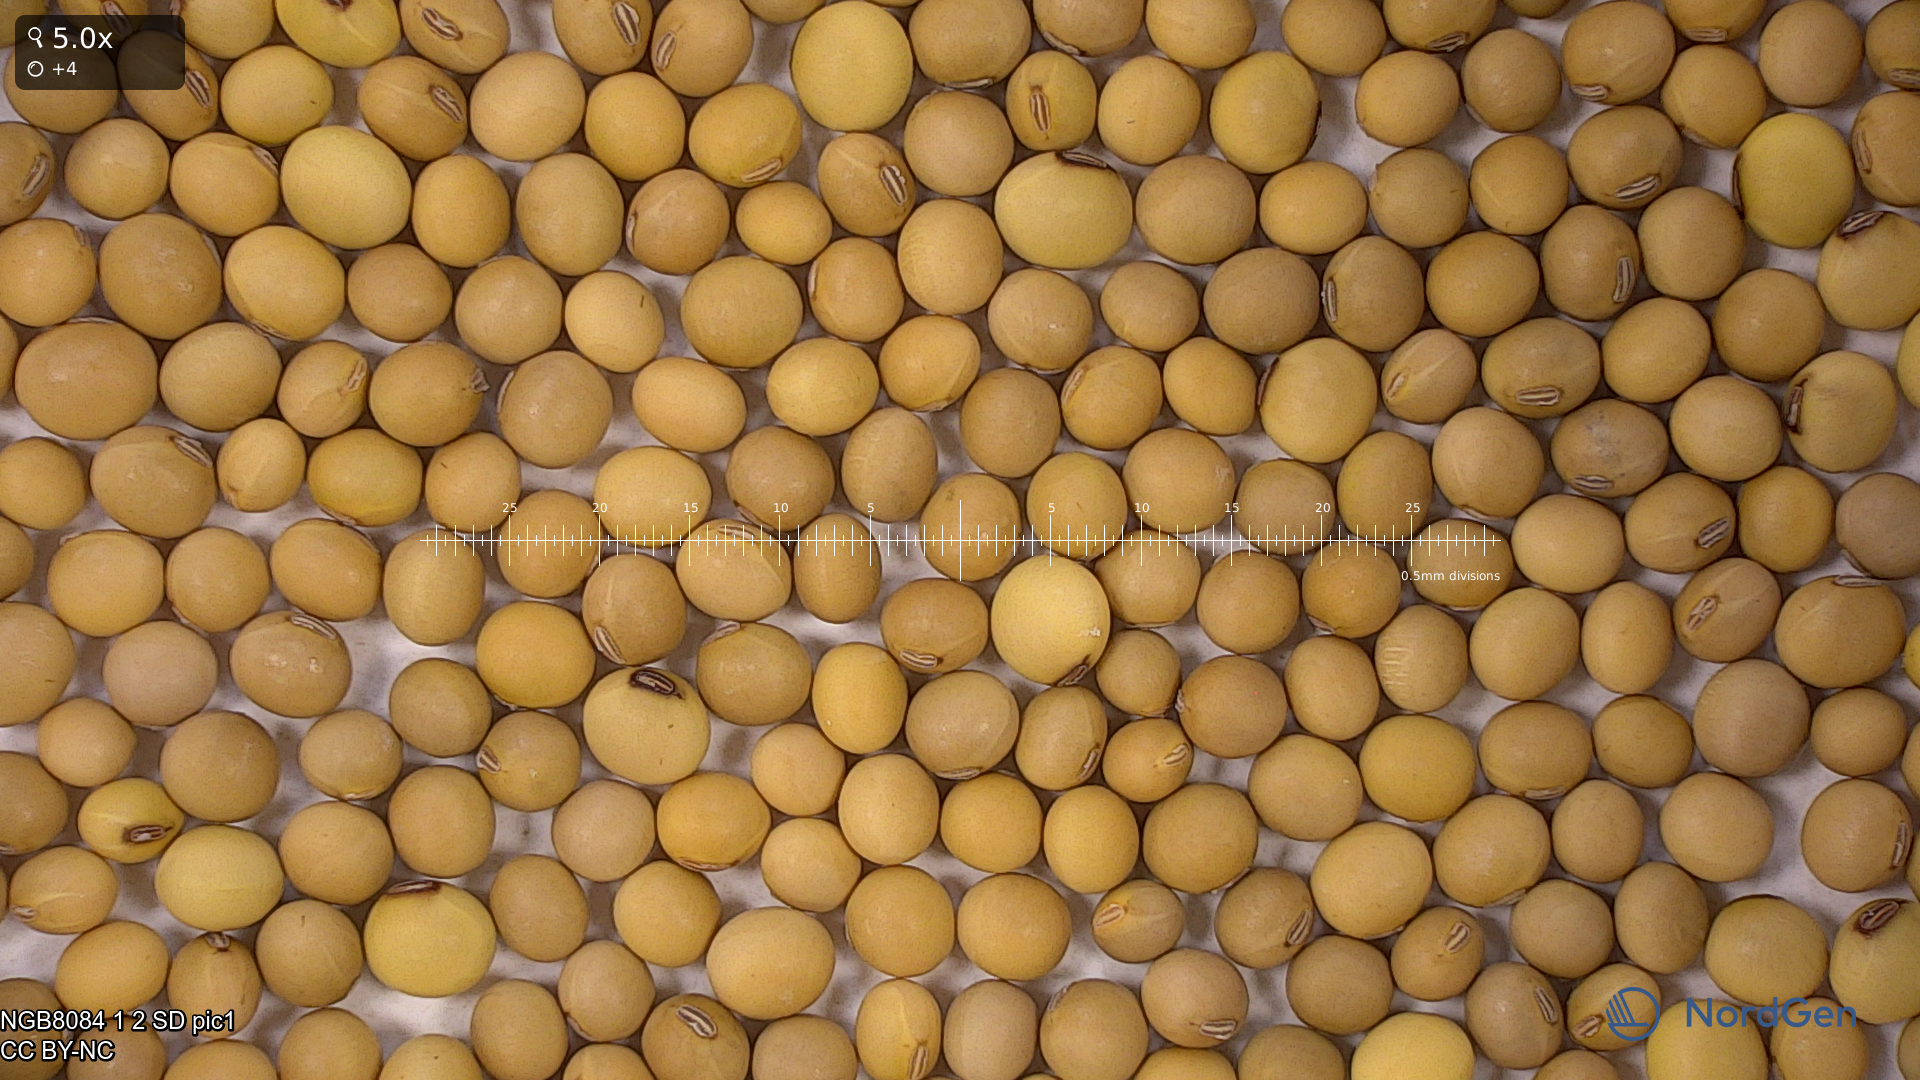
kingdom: Plantae
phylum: Tracheophyta
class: Magnoliopsida
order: Fabales
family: Fabaceae
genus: Glycine
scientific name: Glycine max
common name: Soya-bean
